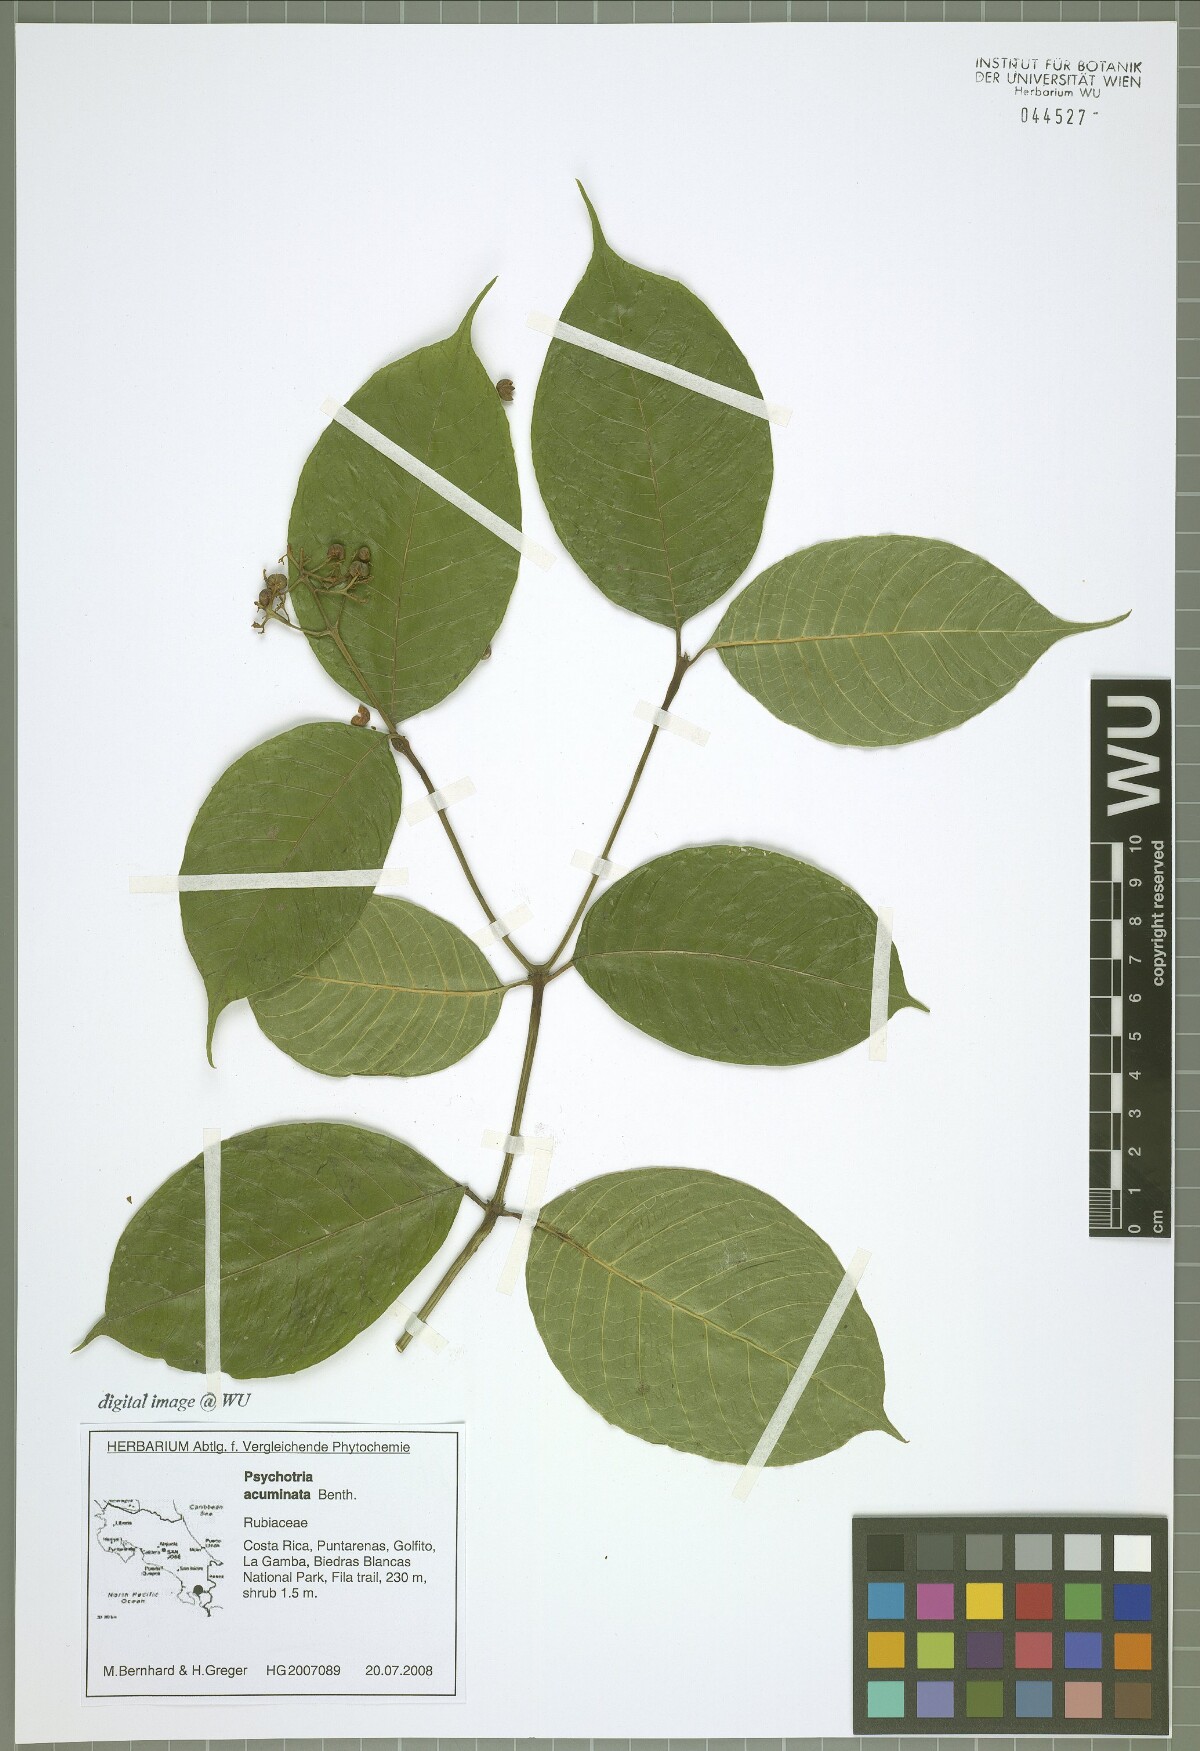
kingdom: Plantae
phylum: Tracheophyta
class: Magnoliopsida
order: Gentianales
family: Rubiaceae
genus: Palicourea
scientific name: Palicourea acuminata
